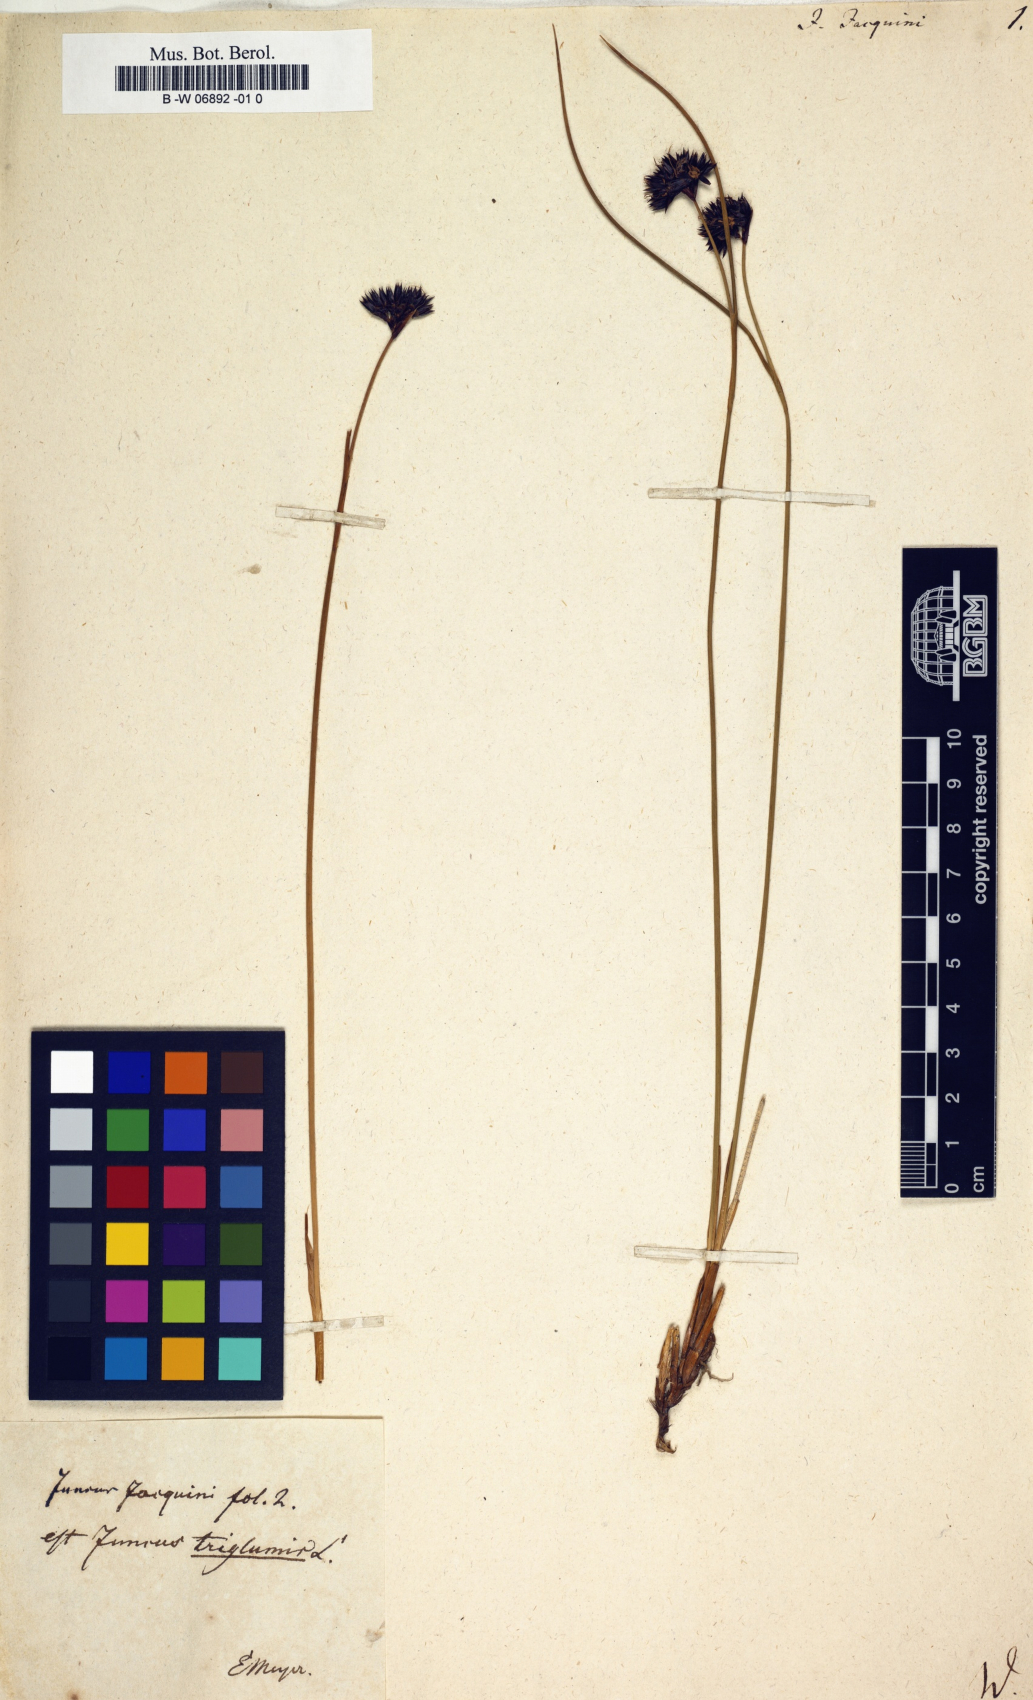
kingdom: Plantae
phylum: Tracheophyta
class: Liliopsida
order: Poales
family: Juncaceae
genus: Juncus
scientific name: Juncus jacquinii
